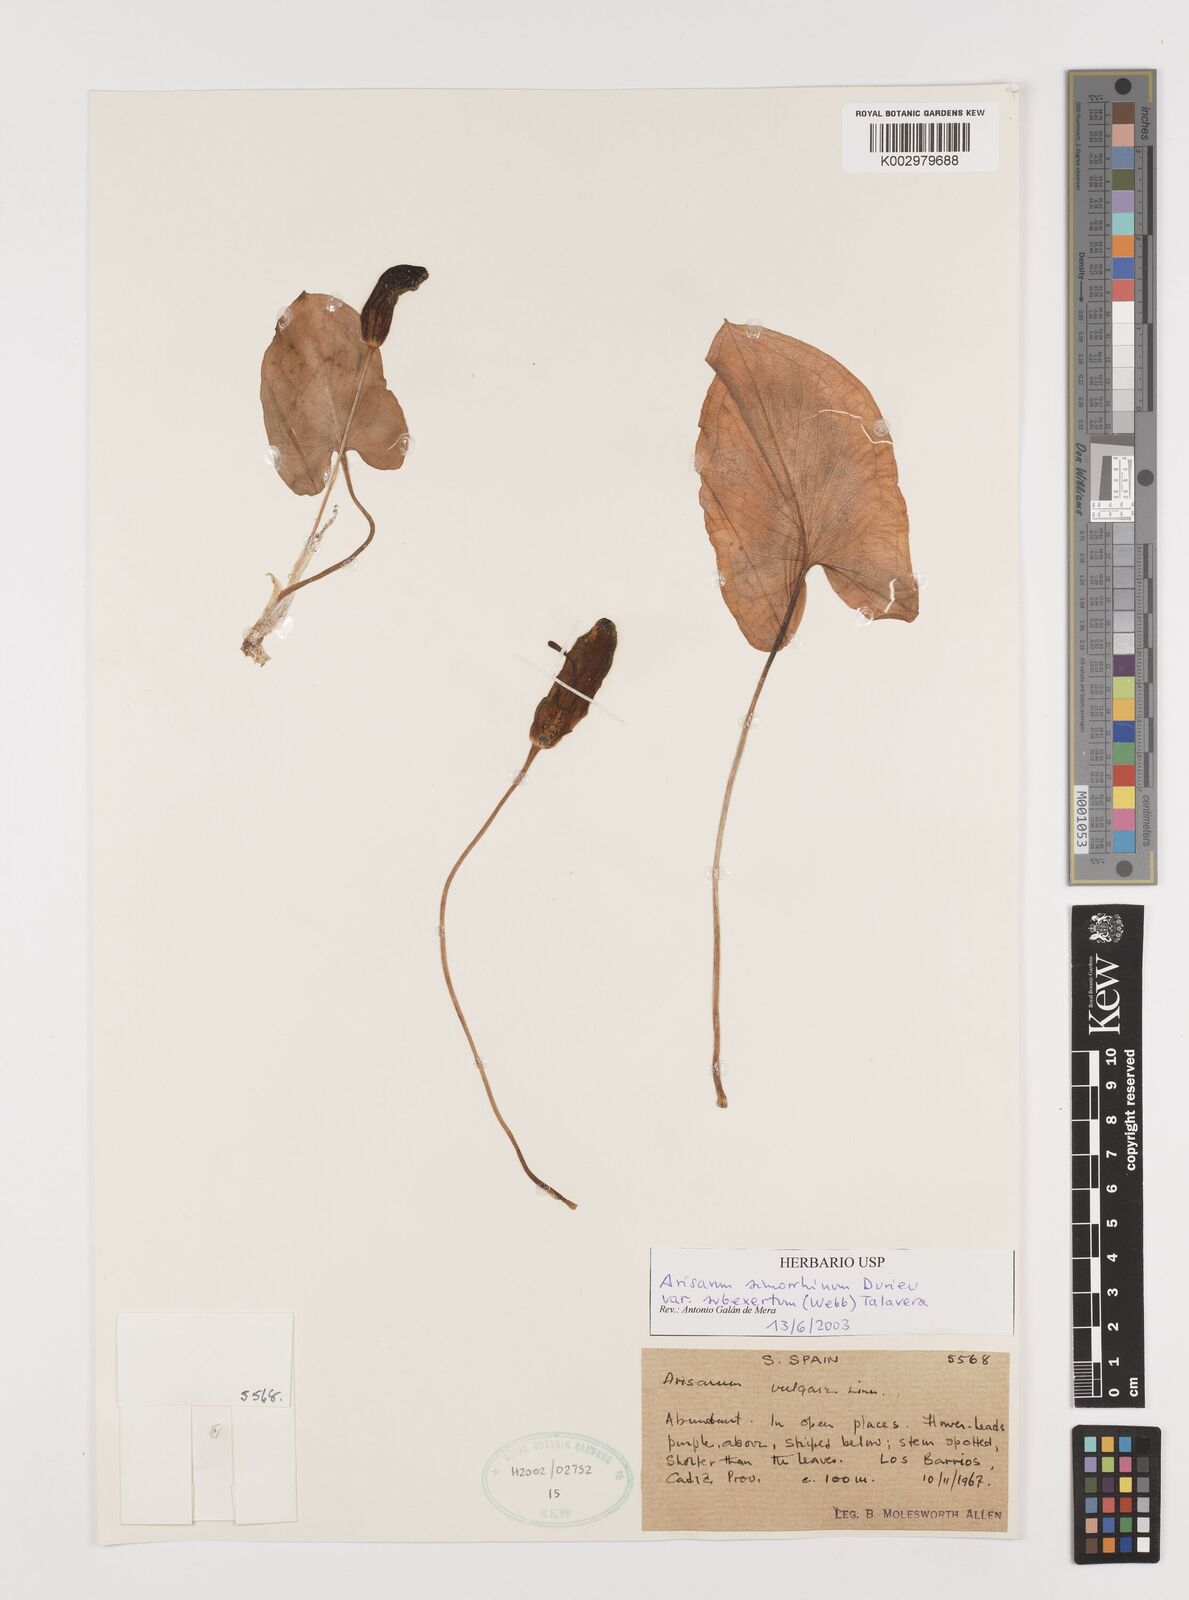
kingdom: Plantae
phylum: Tracheophyta
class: Liliopsida
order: Alismatales
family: Araceae
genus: Arisarum
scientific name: Arisarum simorrhinum
